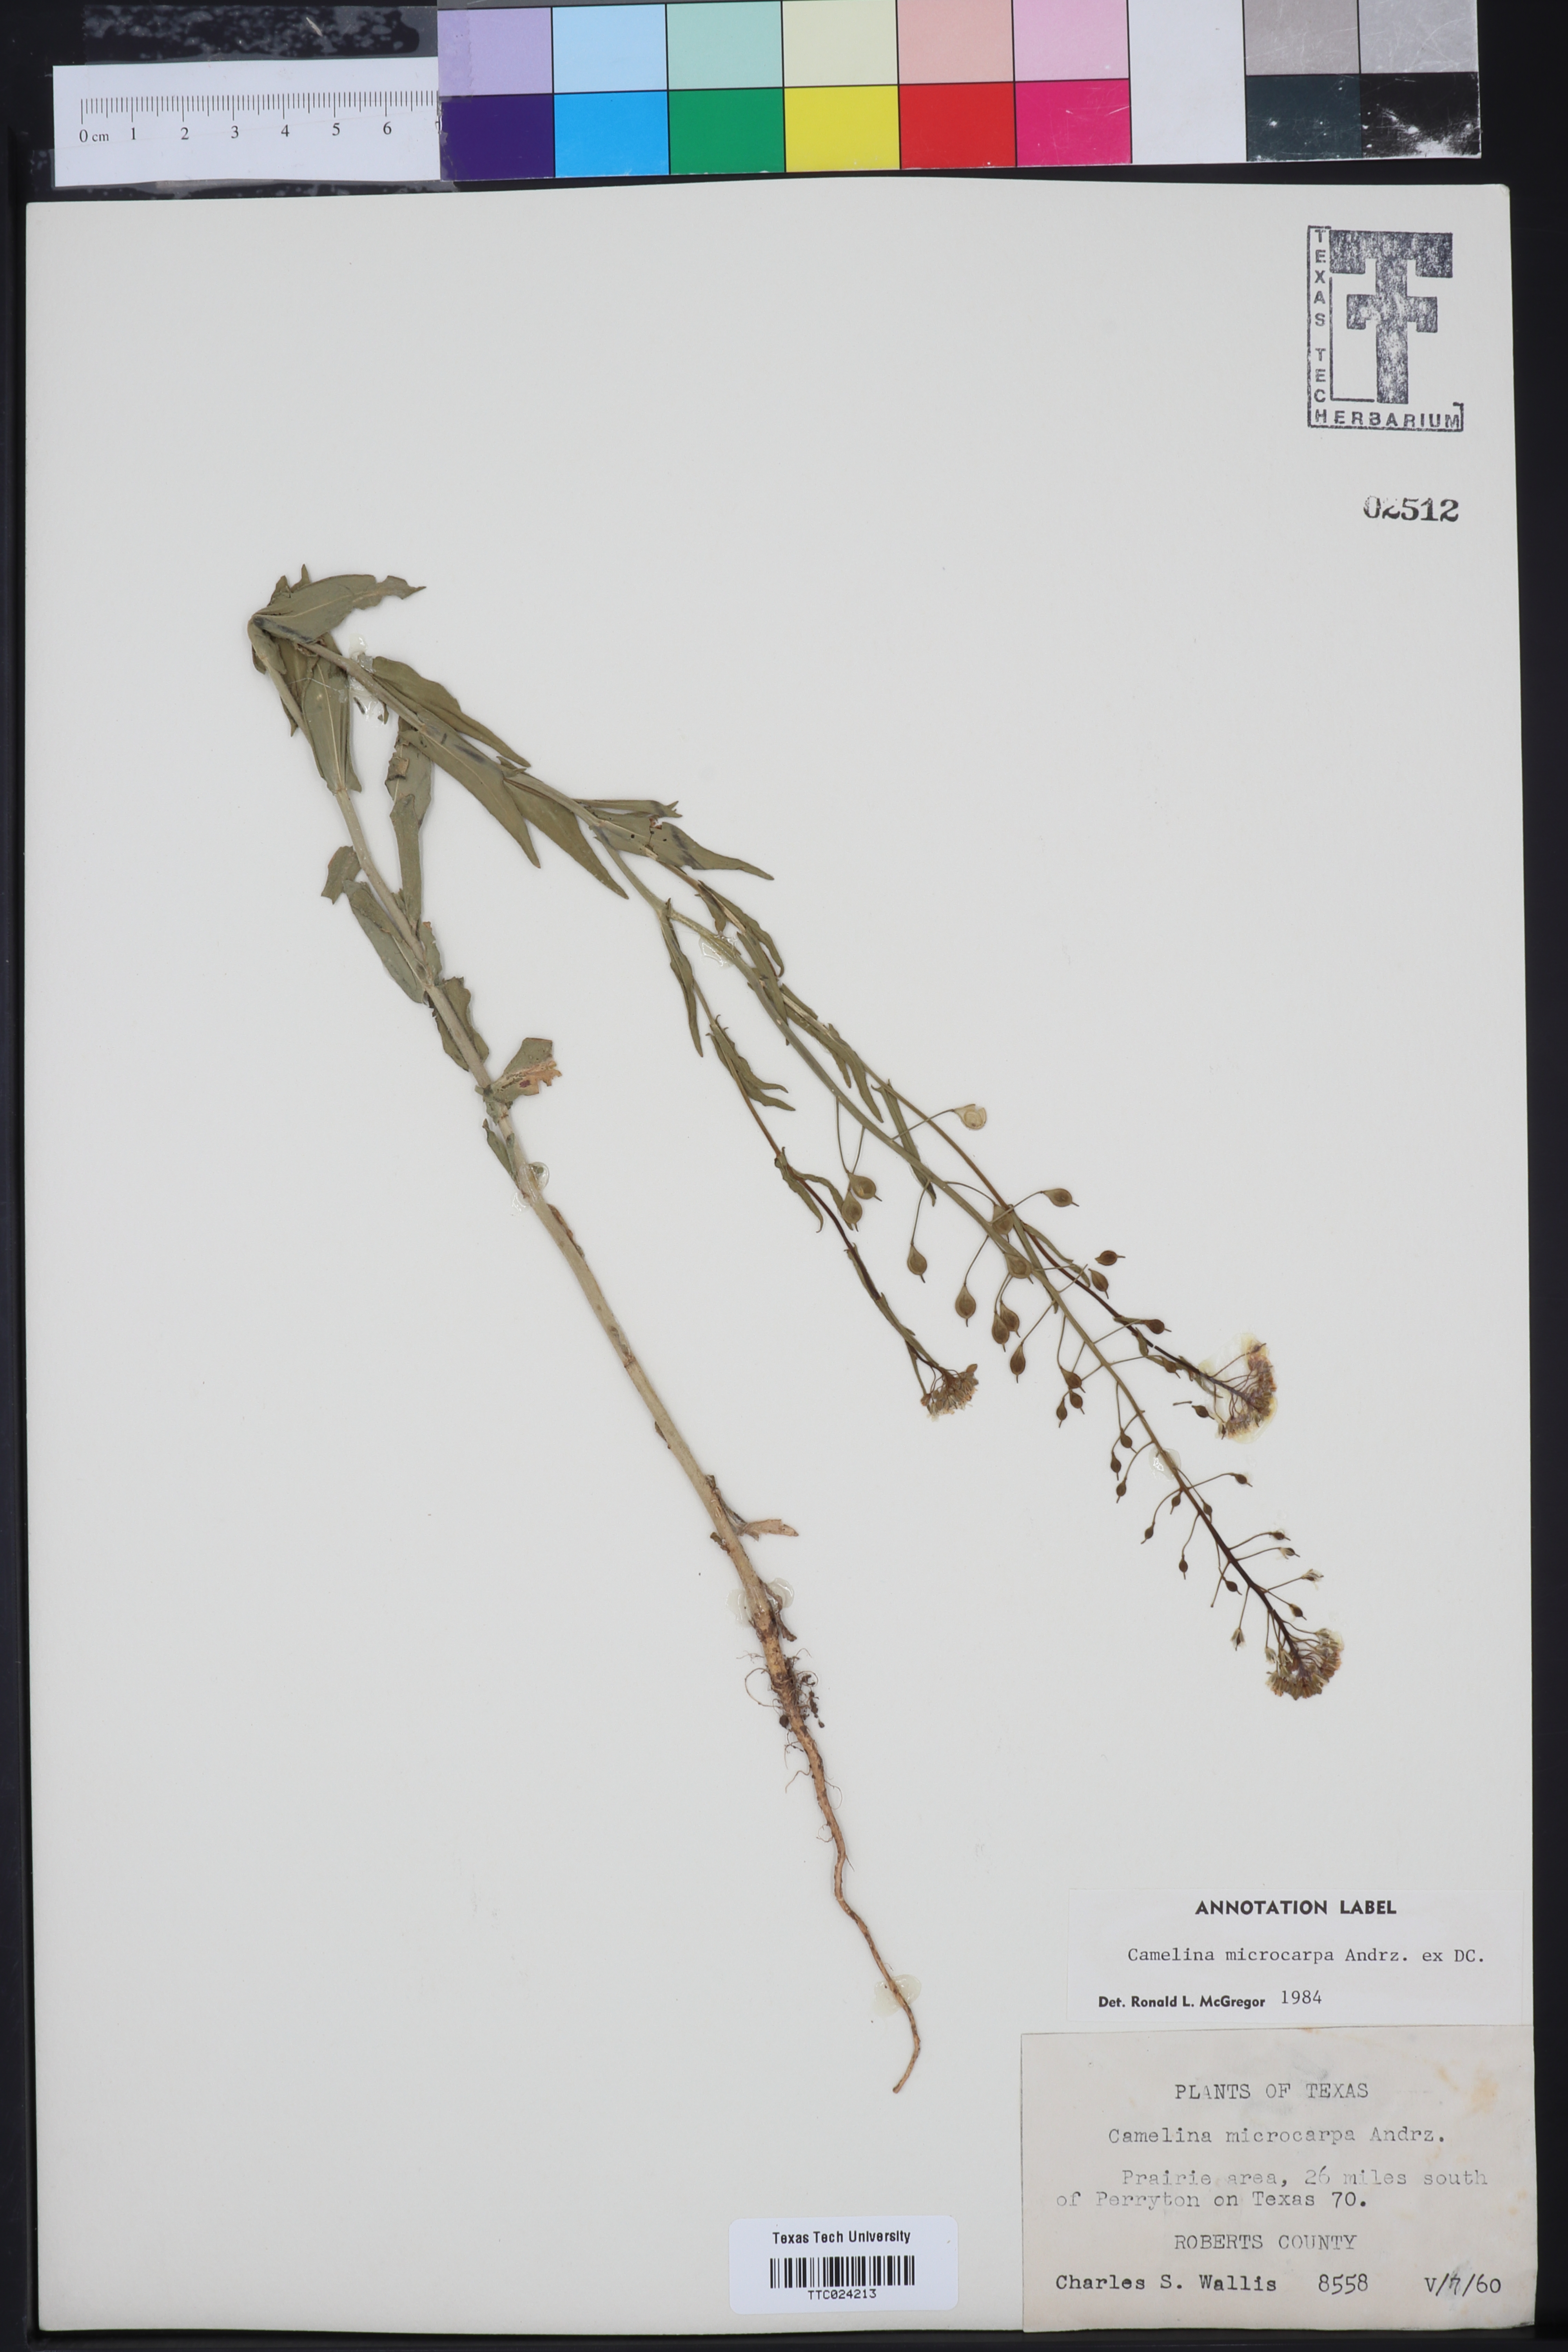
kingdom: Plantae
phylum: Tracheophyta
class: Magnoliopsida
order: Brassicales
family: Brassicaceae
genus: Camelina
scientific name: Camelina microcarpa
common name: Lesser gold-of-pleasure
